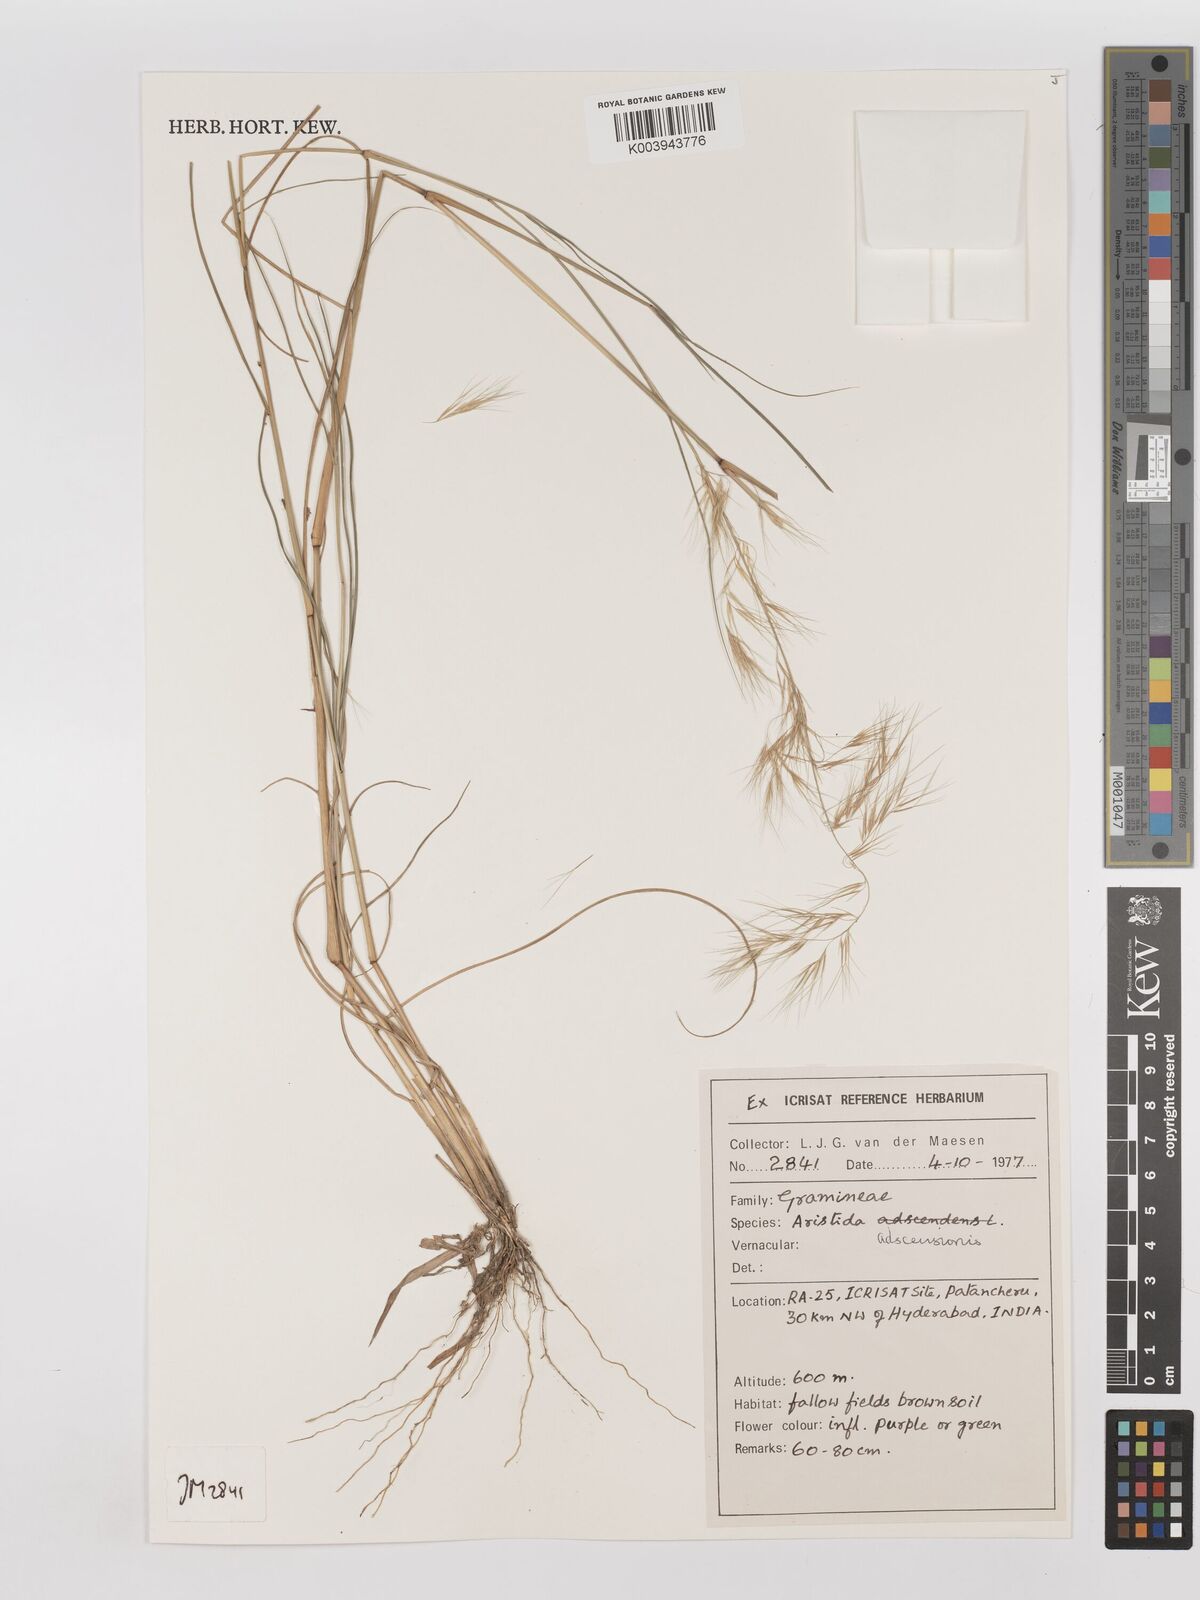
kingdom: Plantae
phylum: Tracheophyta
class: Liliopsida
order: Poales
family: Poaceae
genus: Aristida
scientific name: Aristida adscensionis
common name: Sixweeks threeawn
